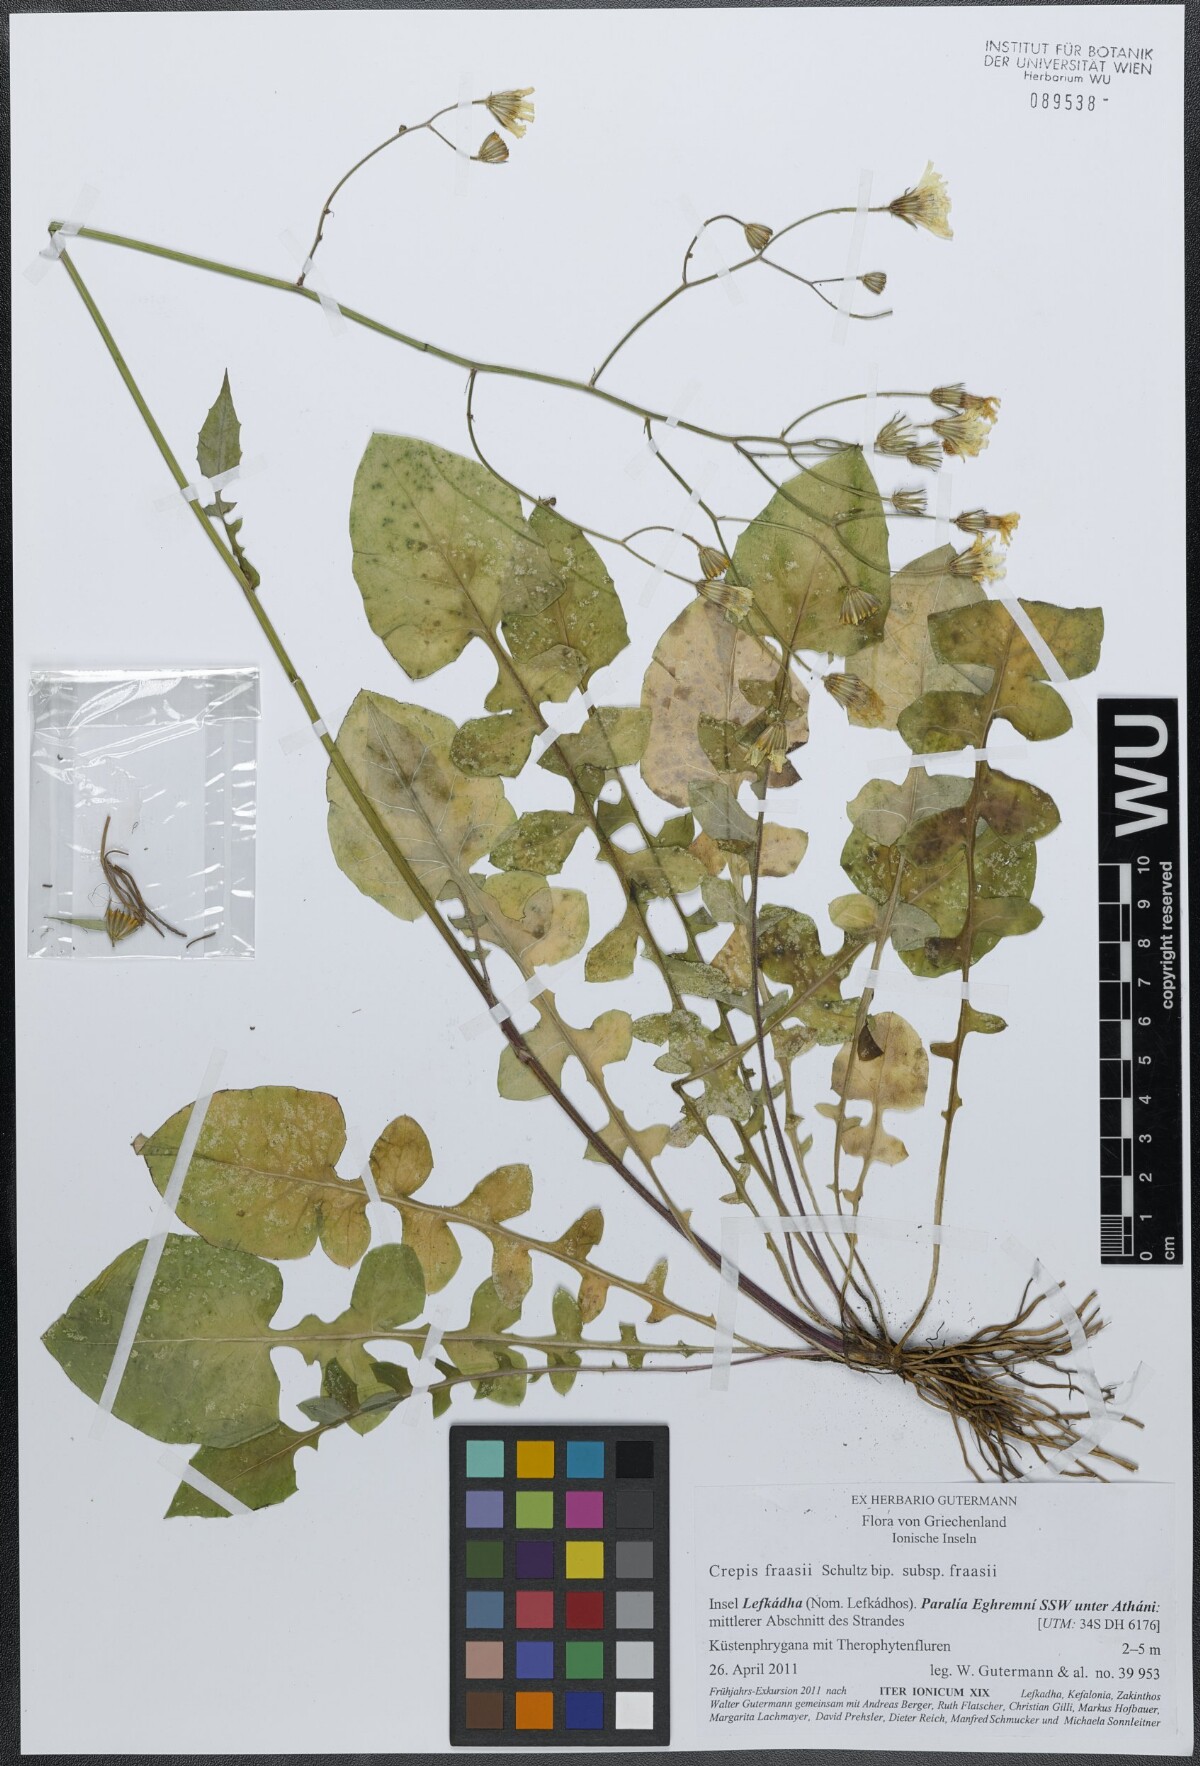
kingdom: Plantae
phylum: Tracheophyta
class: Magnoliopsida
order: Asterales
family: Asteraceae
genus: Crepis
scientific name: Crepis fraasii
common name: Hawk's-beard
